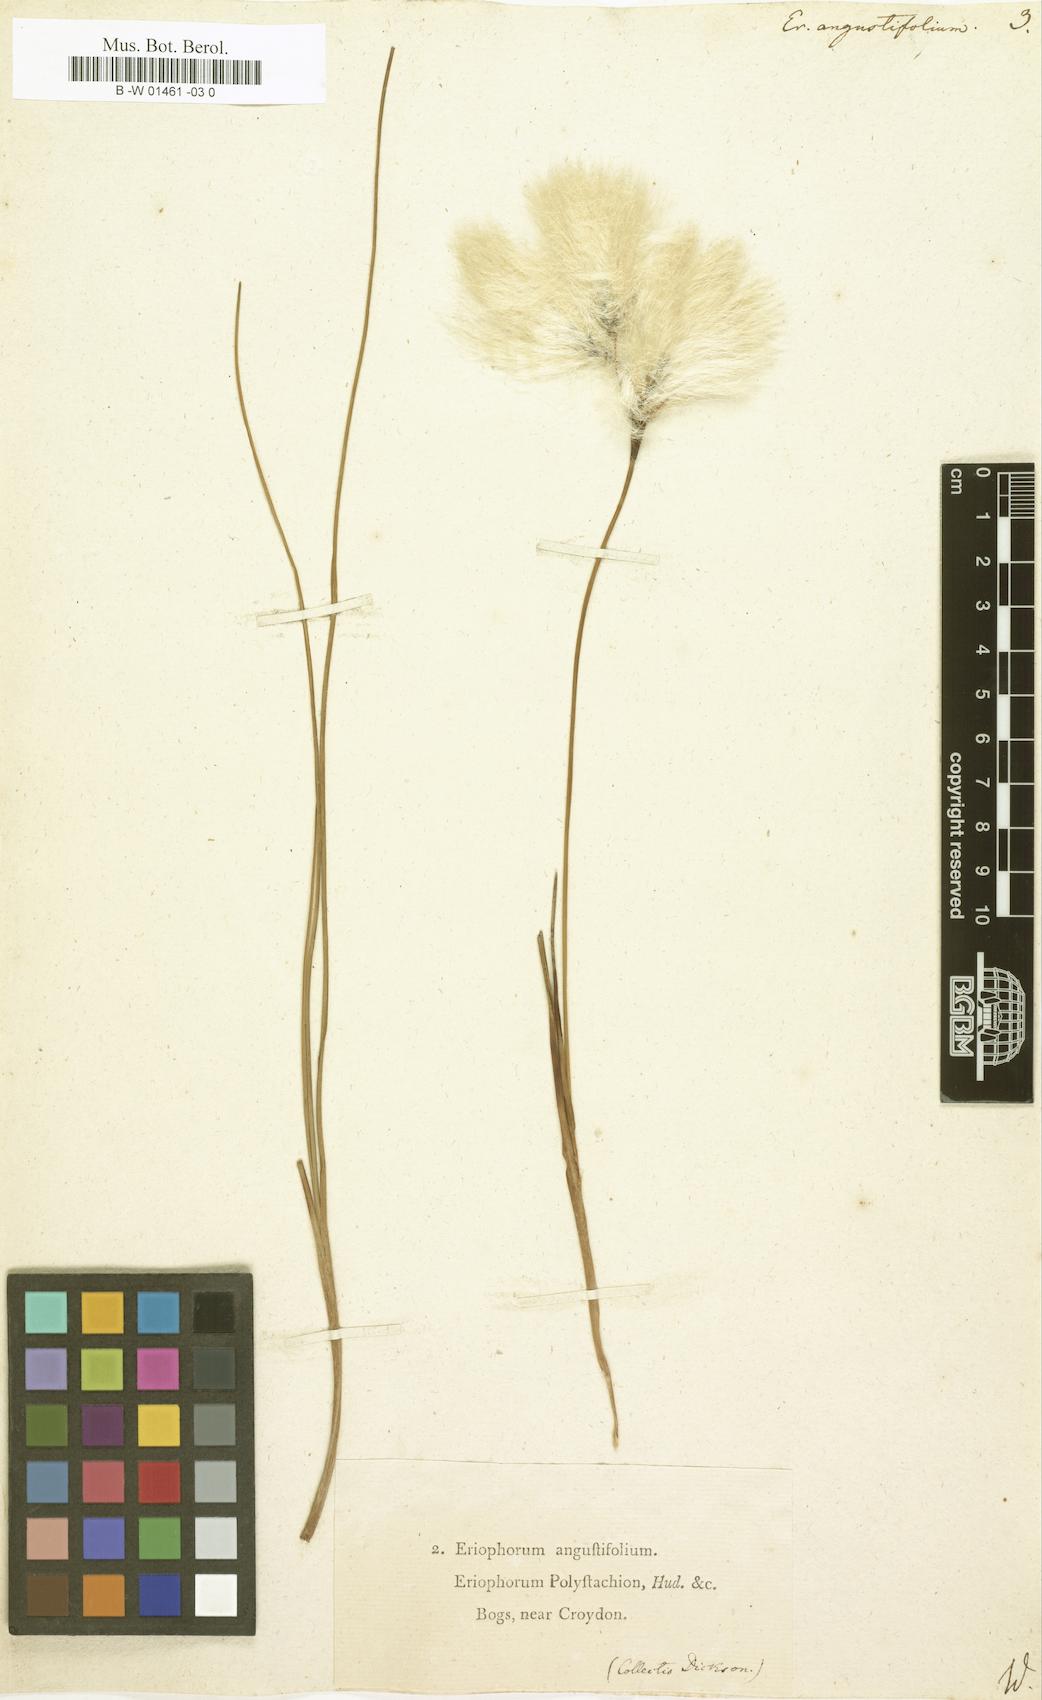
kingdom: Plantae
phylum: Tracheophyta
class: Liliopsida
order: Poales
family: Cyperaceae
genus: Eriophorum
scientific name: Eriophorum angustifolium
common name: Common cottongrass
